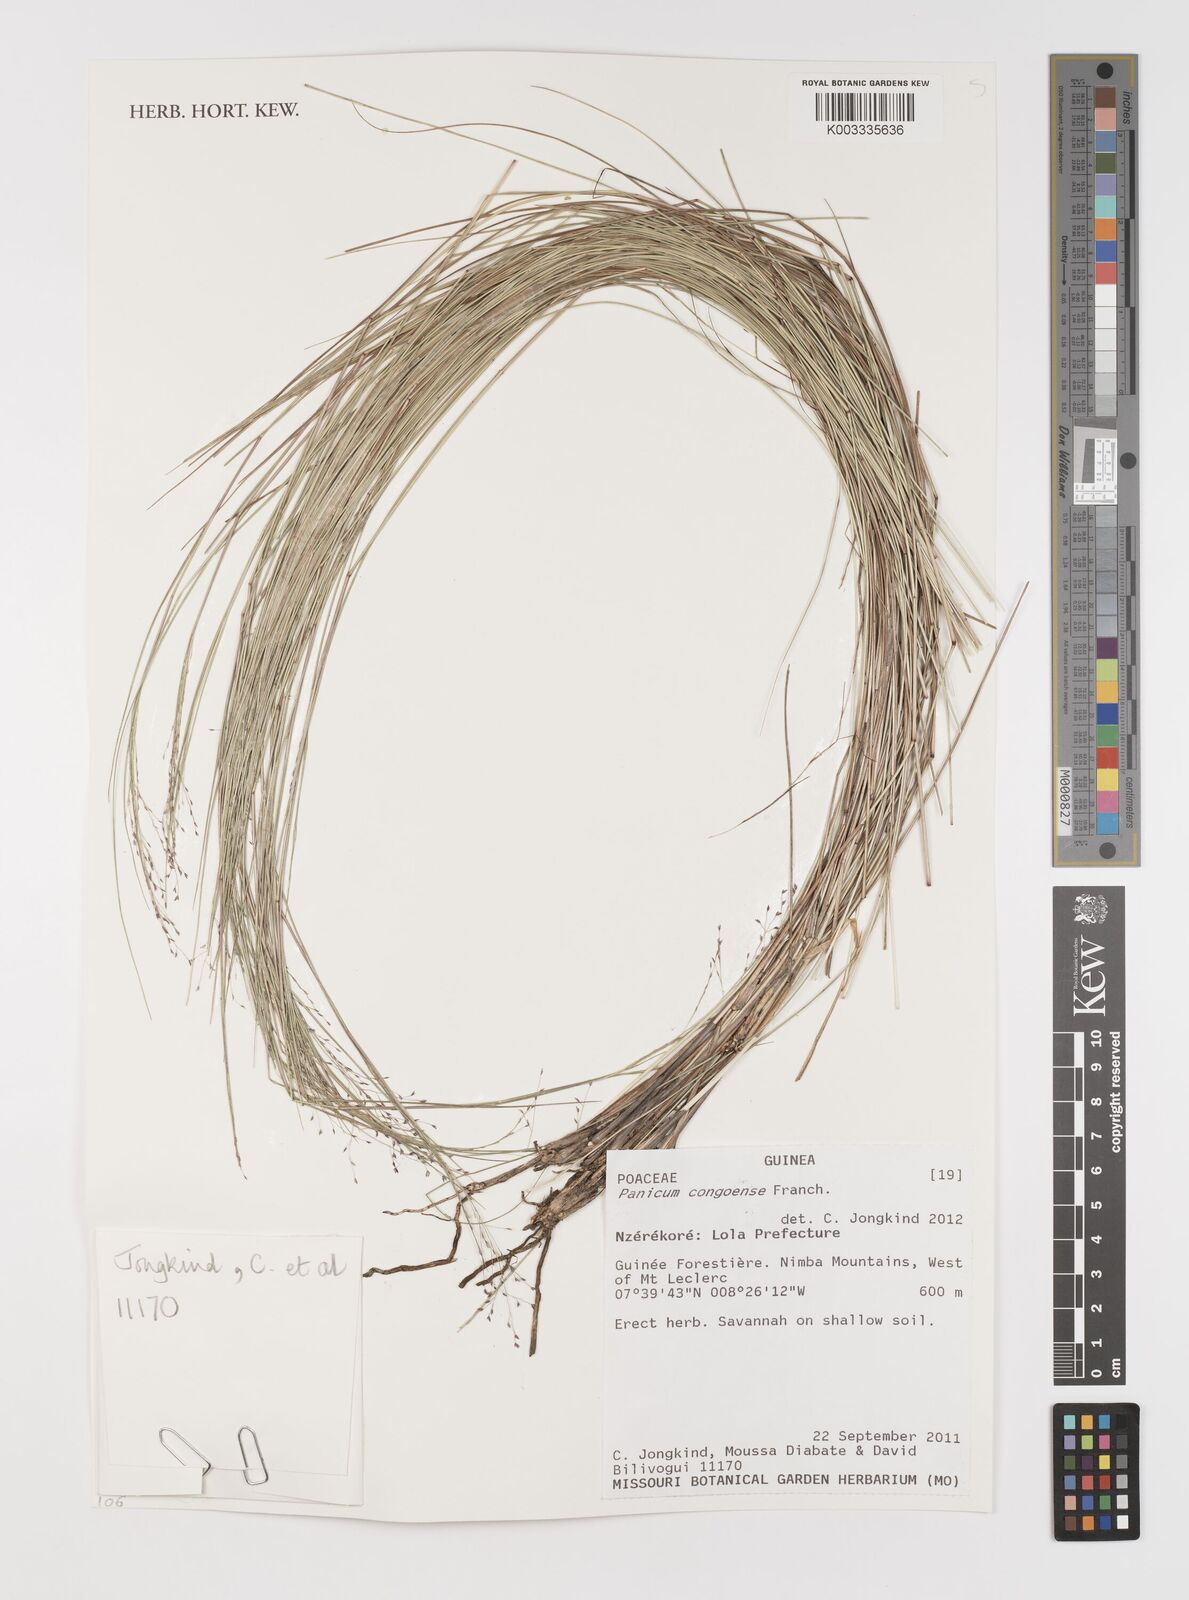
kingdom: Plantae
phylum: Tracheophyta
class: Liliopsida
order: Poales
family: Poaceae
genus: Panicum
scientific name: Panicum congoense
